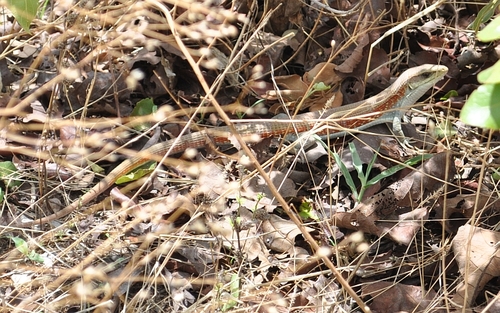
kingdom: Animalia
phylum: Chordata
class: Squamata
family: Gerrhosauridae
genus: Gerrhosaurus
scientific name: Gerrhosaurus bulsi
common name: Laurent’s plated lizard
